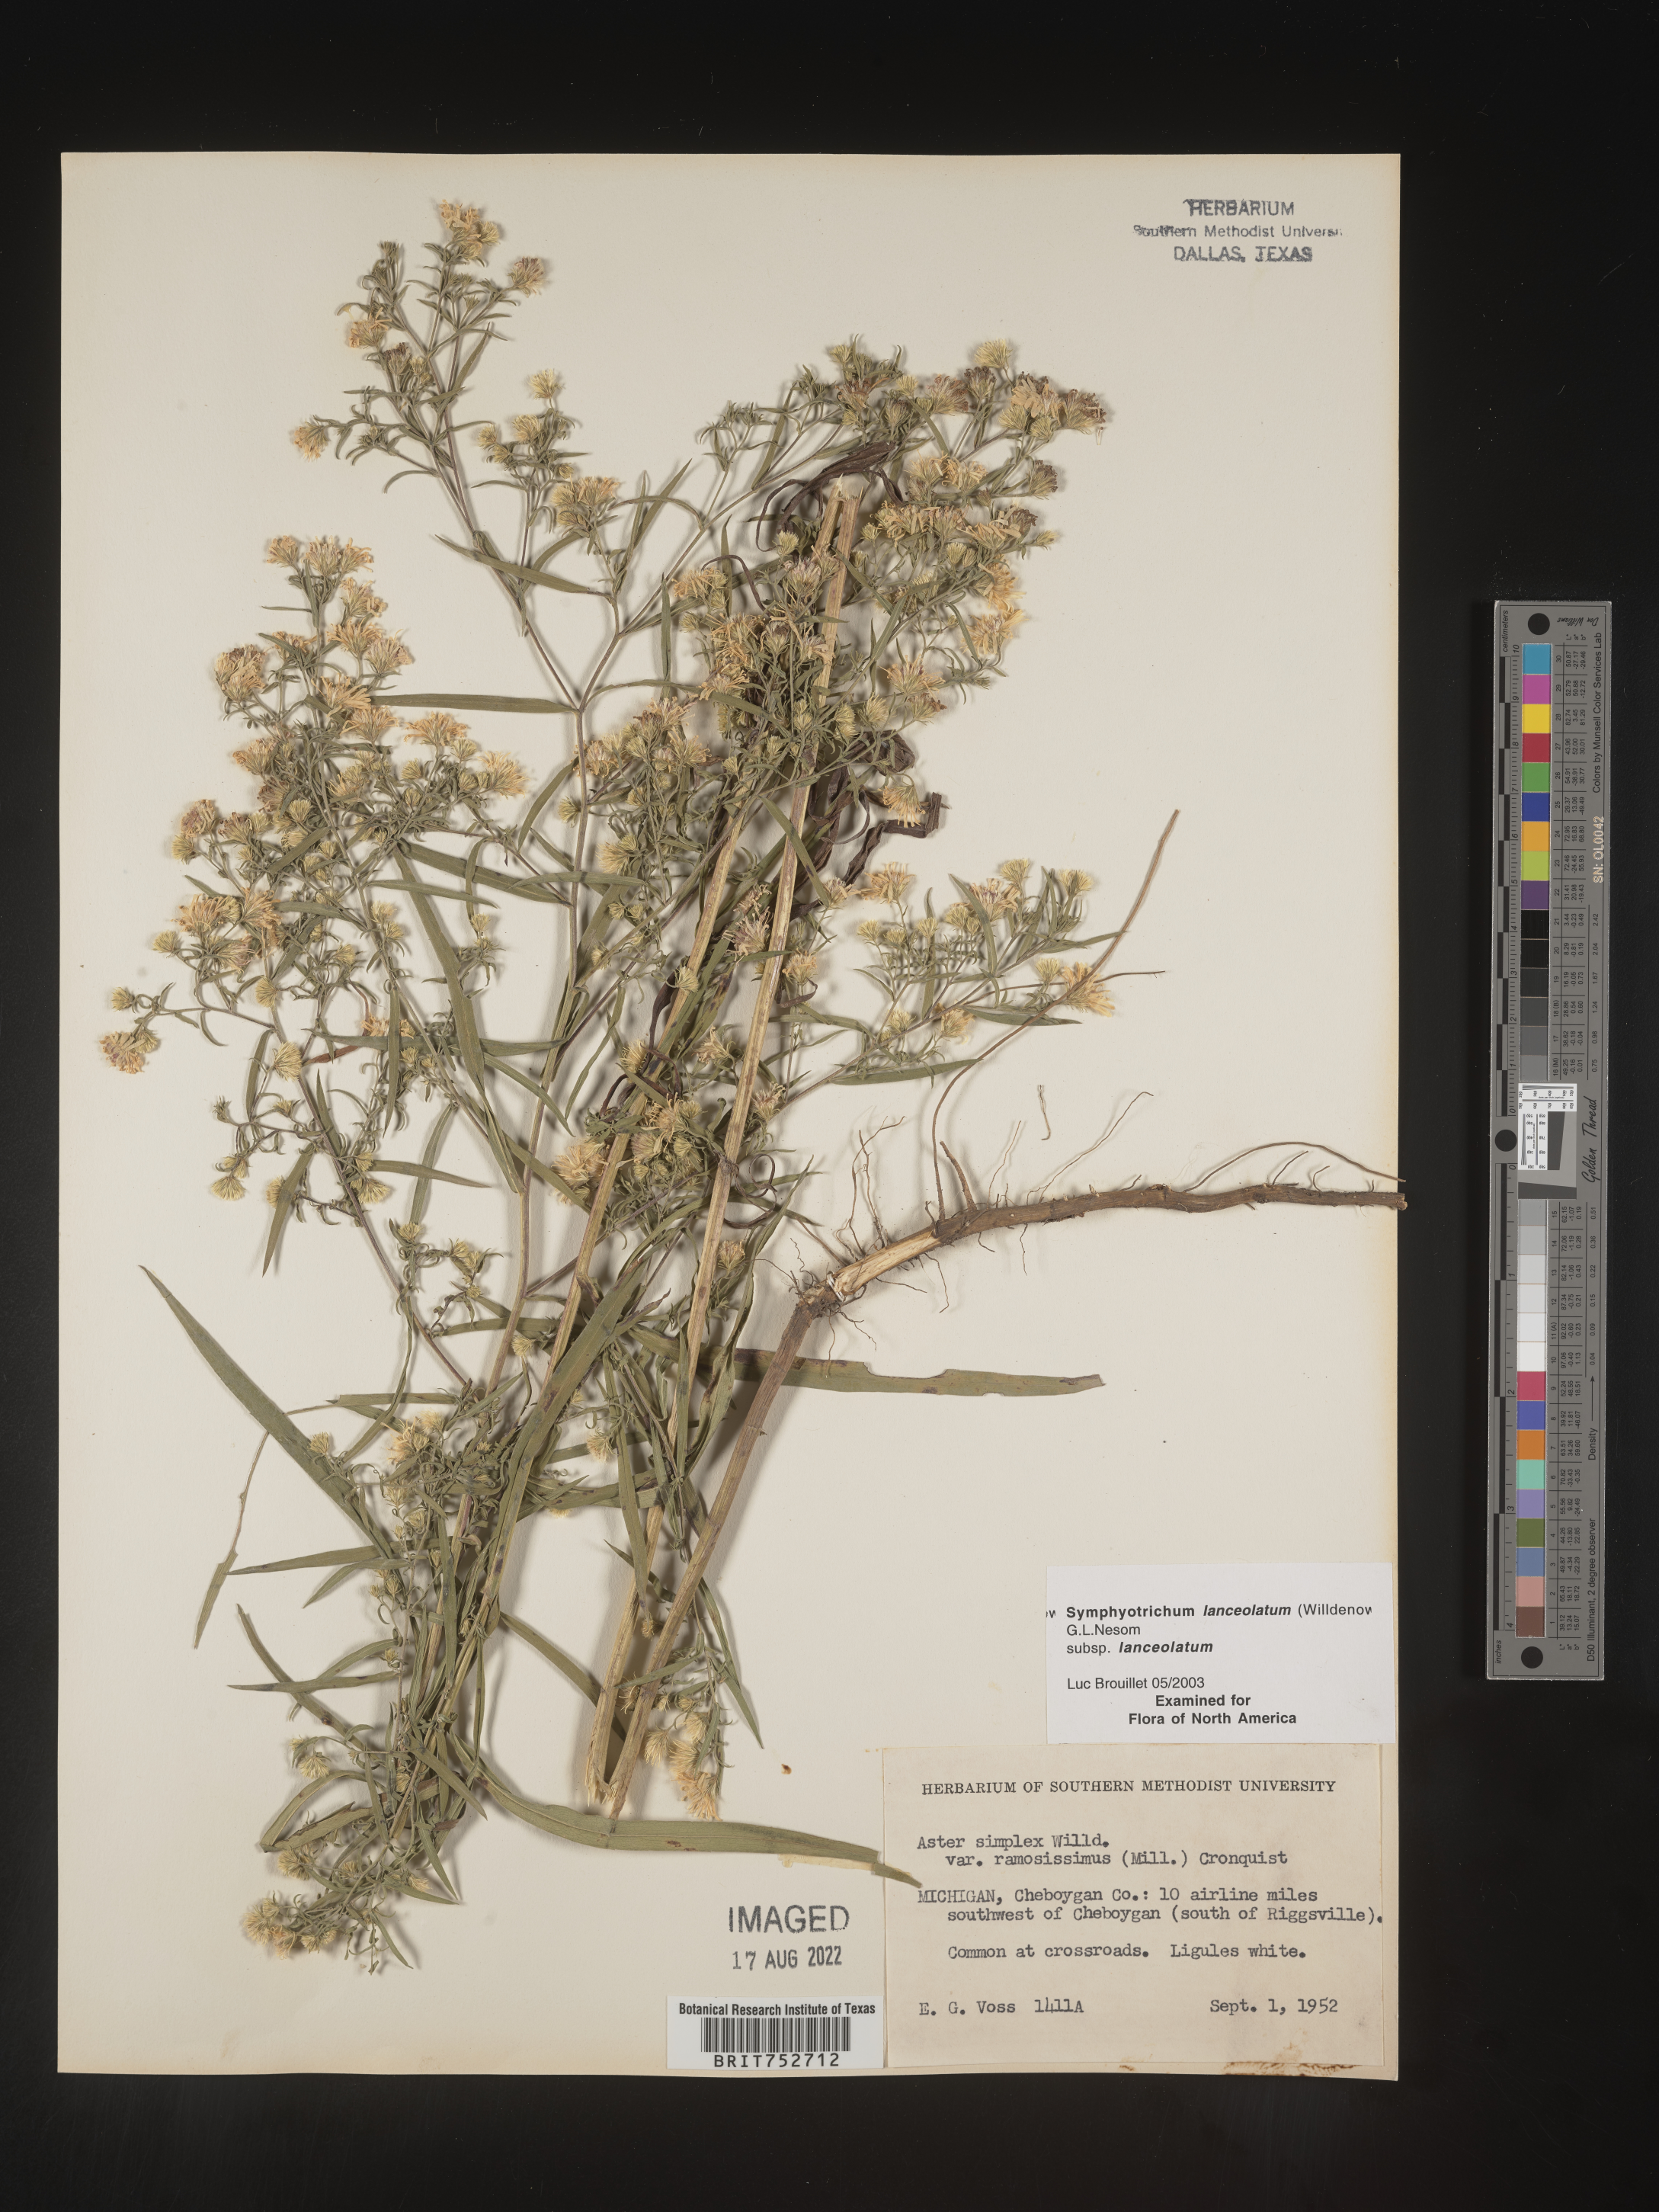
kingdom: Plantae
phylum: Tracheophyta
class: Magnoliopsida
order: Asterales
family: Asteraceae
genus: Symphyotrichum
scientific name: Symphyotrichum lanceolatum
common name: Panicled aster
